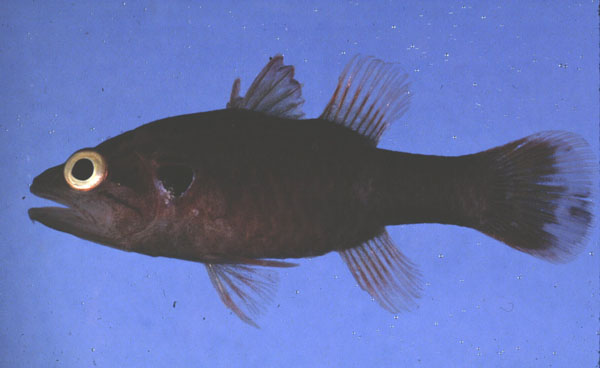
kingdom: Animalia
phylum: Chordata
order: Perciformes
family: Apogonidae
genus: Fowleria
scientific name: Fowleria aurita
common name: Crosseyed cardinalfish
